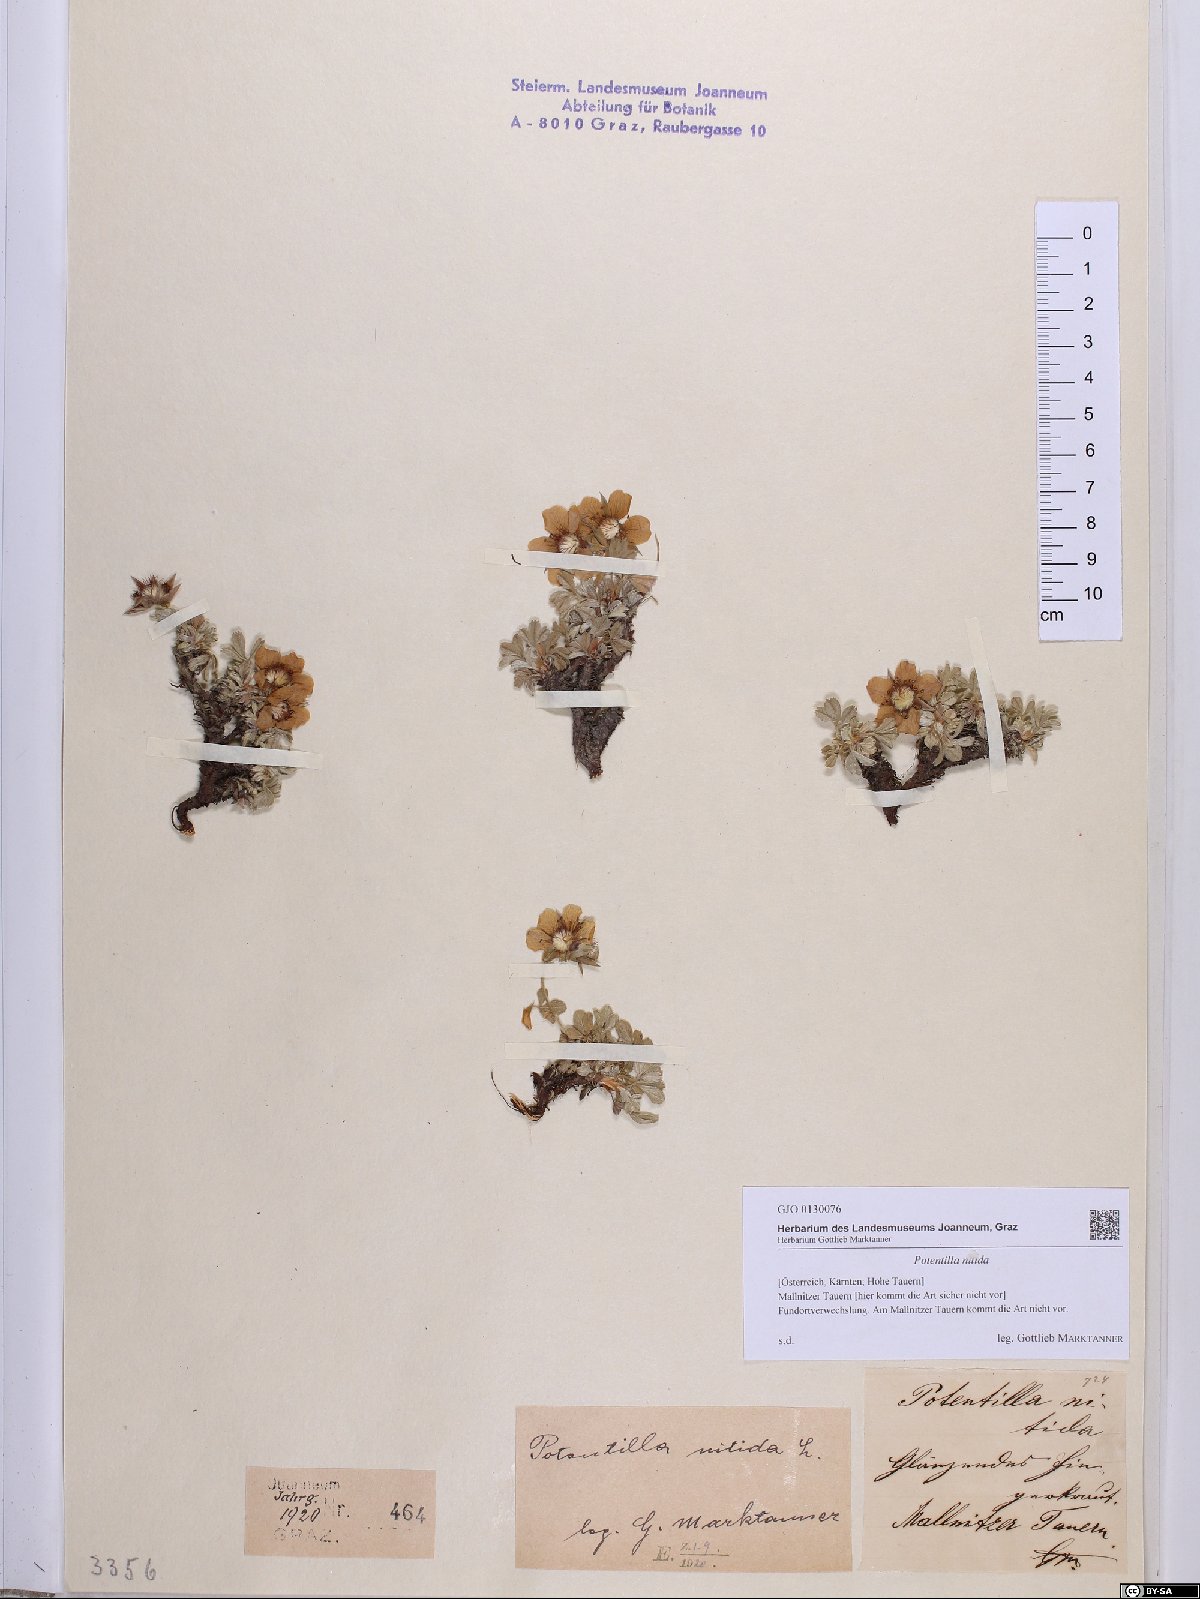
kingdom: Plantae
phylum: Tracheophyta
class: Magnoliopsida
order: Rosales
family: Rosaceae
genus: Potentilla
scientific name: Potentilla nitida
